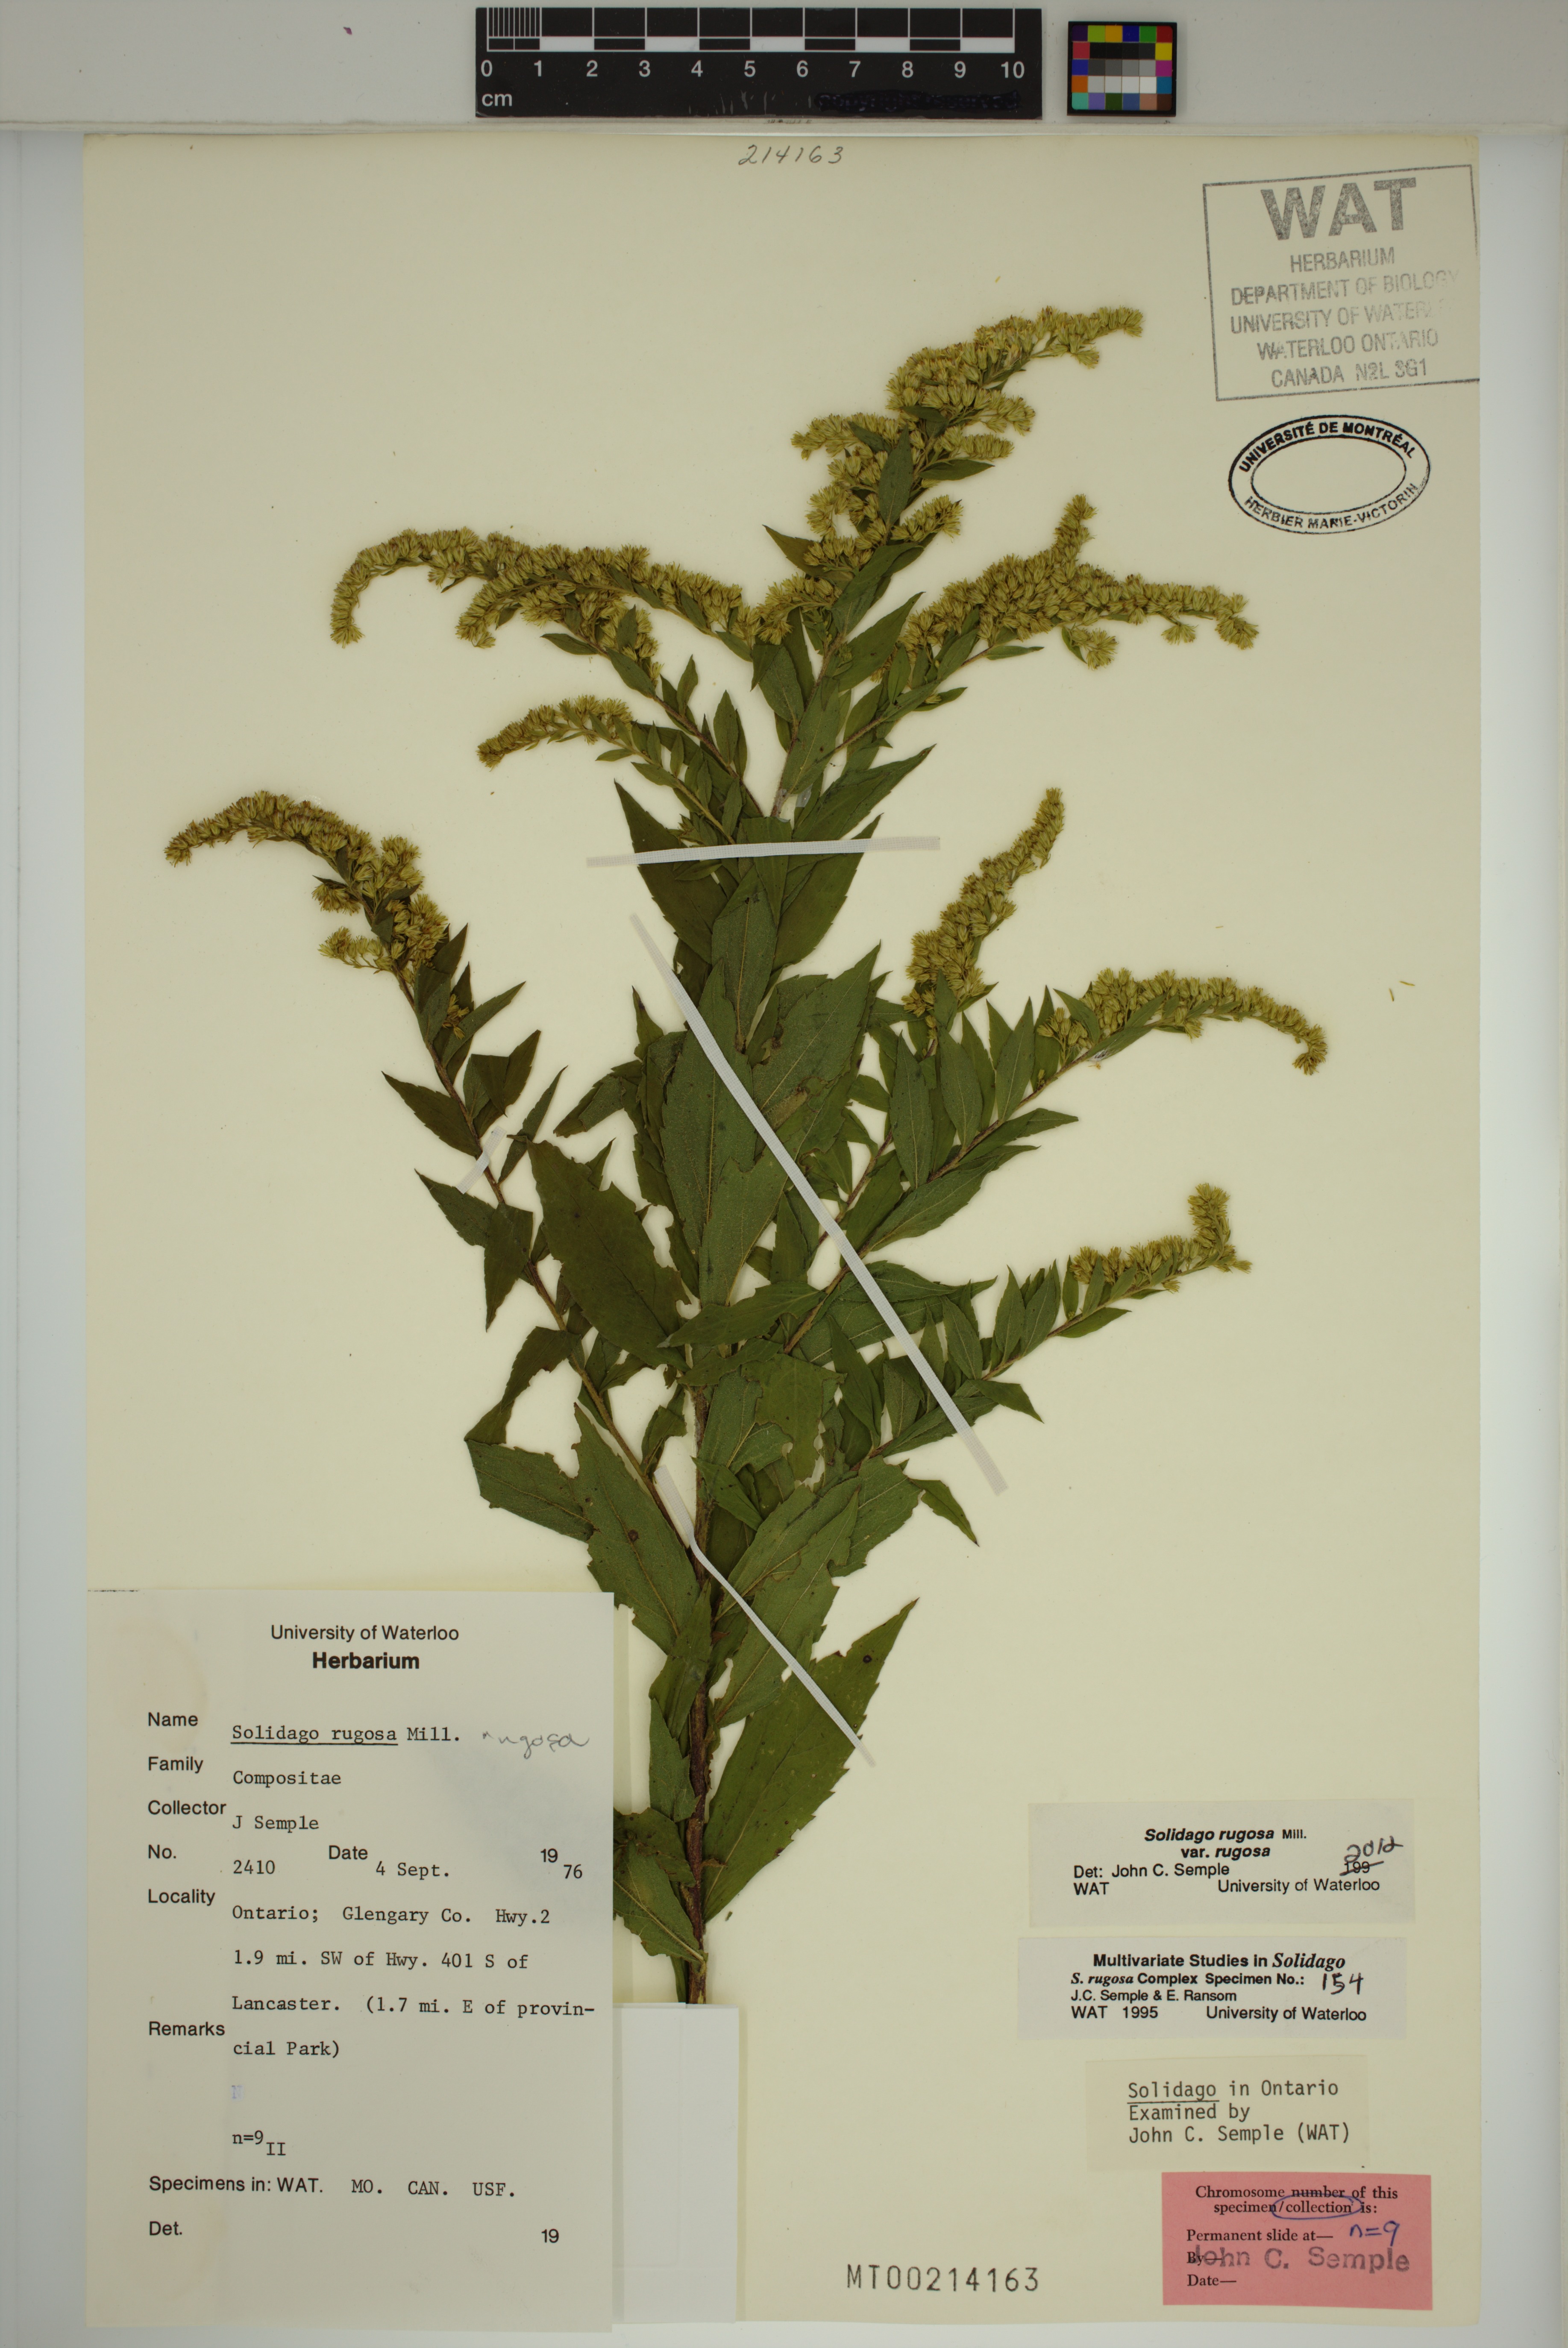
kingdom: Plantae
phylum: Tracheophyta
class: Magnoliopsida
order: Asterales
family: Asteraceae
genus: Solidago
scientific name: Solidago rugosa
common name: Rough-stemmed goldenrod
